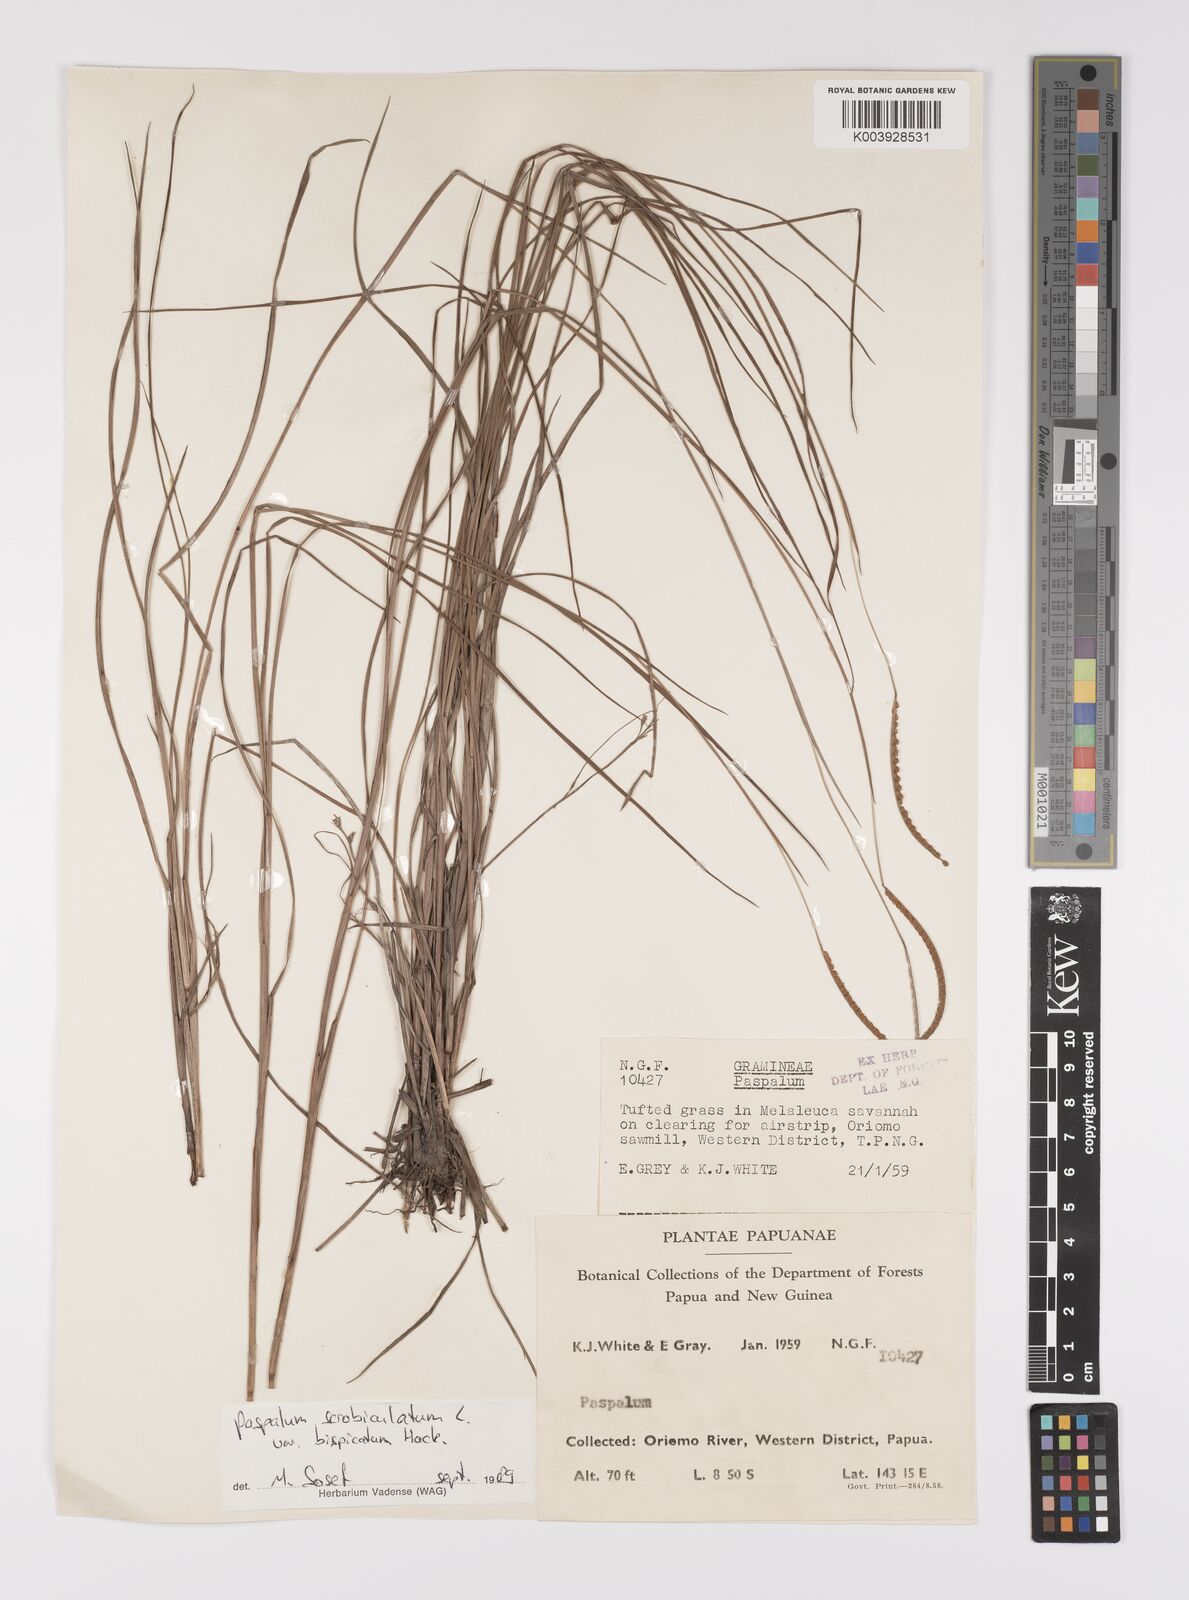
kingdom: Plantae
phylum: Tracheophyta
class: Liliopsida
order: Poales
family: Poaceae
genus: Paspalum
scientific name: Paspalum scrobiculatum
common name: Kodo millet
